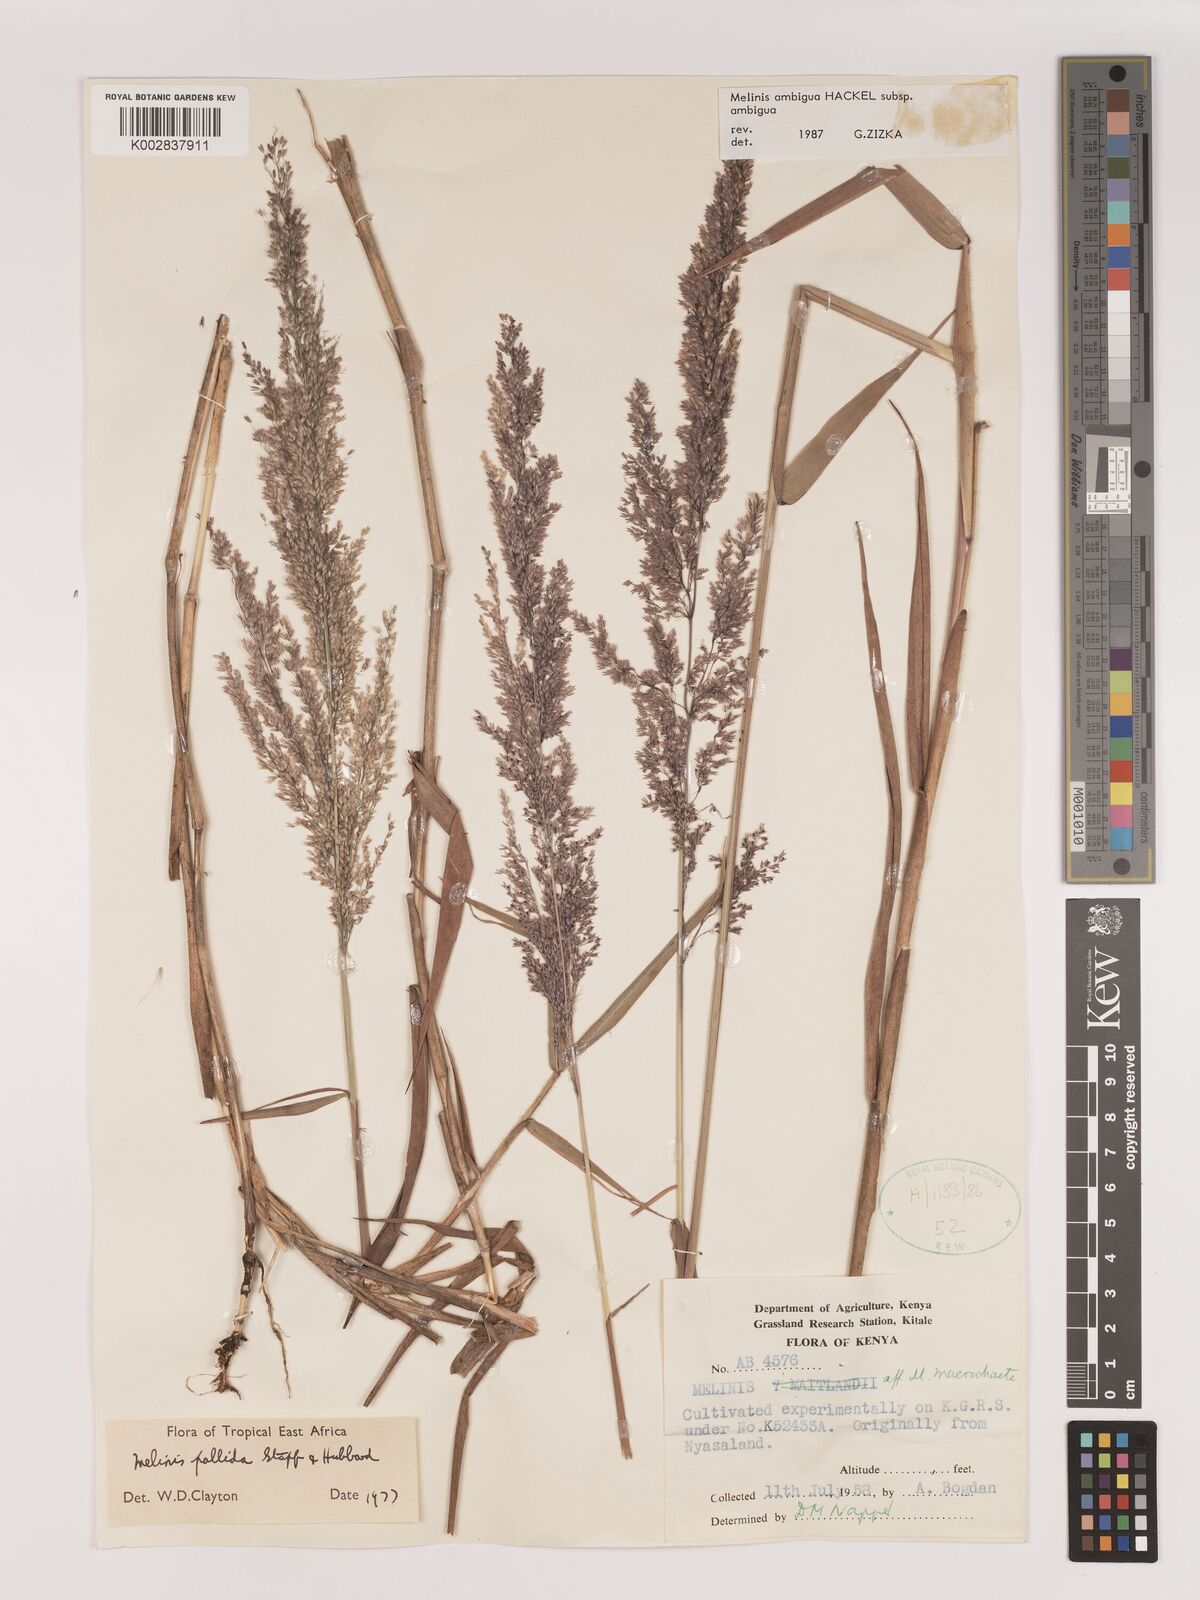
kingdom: Plantae
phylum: Tracheophyta
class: Liliopsida
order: Poales
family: Poaceae
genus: Melinis
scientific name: Melinis ambigua
